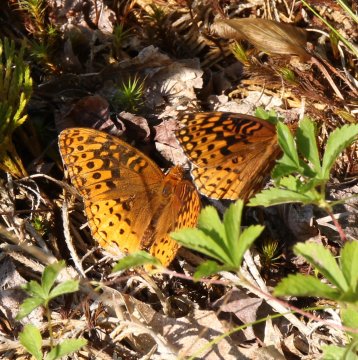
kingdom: Animalia
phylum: Arthropoda
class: Insecta
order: Lepidoptera
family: Nymphalidae
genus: Speyeria
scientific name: Speyeria aphrodite
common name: Aphrodite Fritillary
